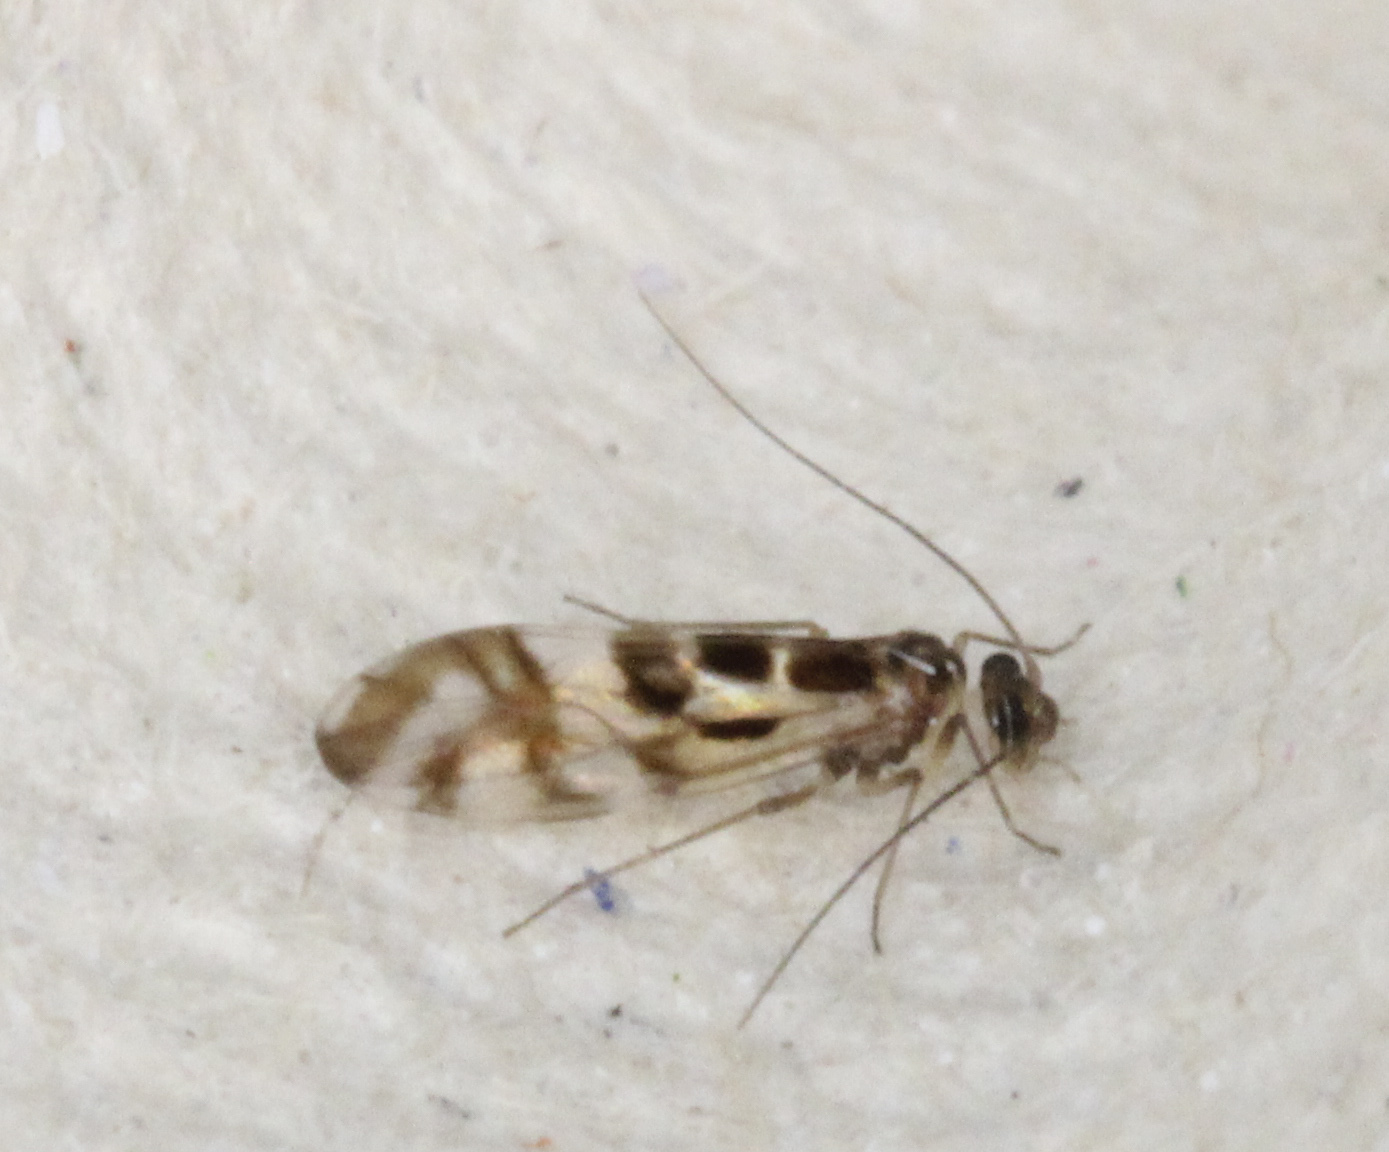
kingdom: Animalia
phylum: Arthropoda
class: Insecta
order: Psocodea
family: Stenopsocidae
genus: Graphopsocus
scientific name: Graphopsocus cruciatus
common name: Lizard bark louse
